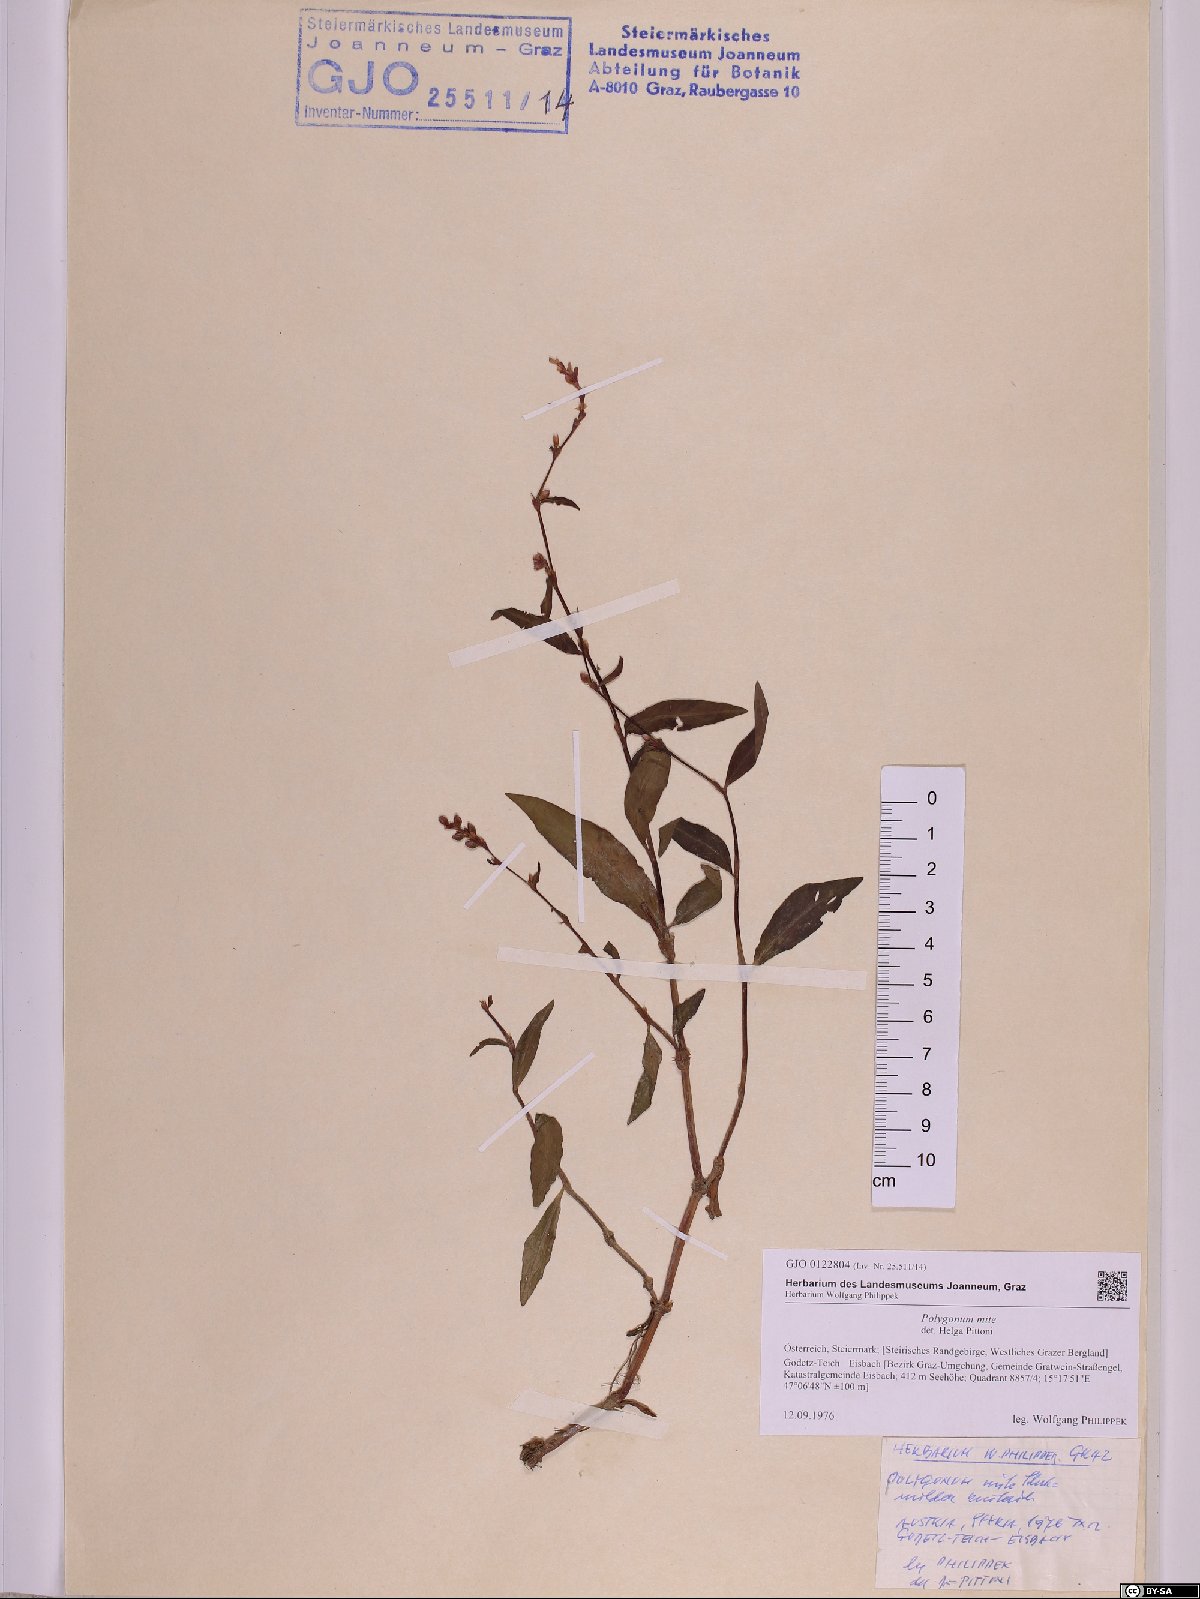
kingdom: Plantae
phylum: Tracheophyta
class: Magnoliopsida
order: Caryophyllales
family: Polygonaceae
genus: Persicaria
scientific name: Persicaria mitis
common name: Tasteless water-pepper
